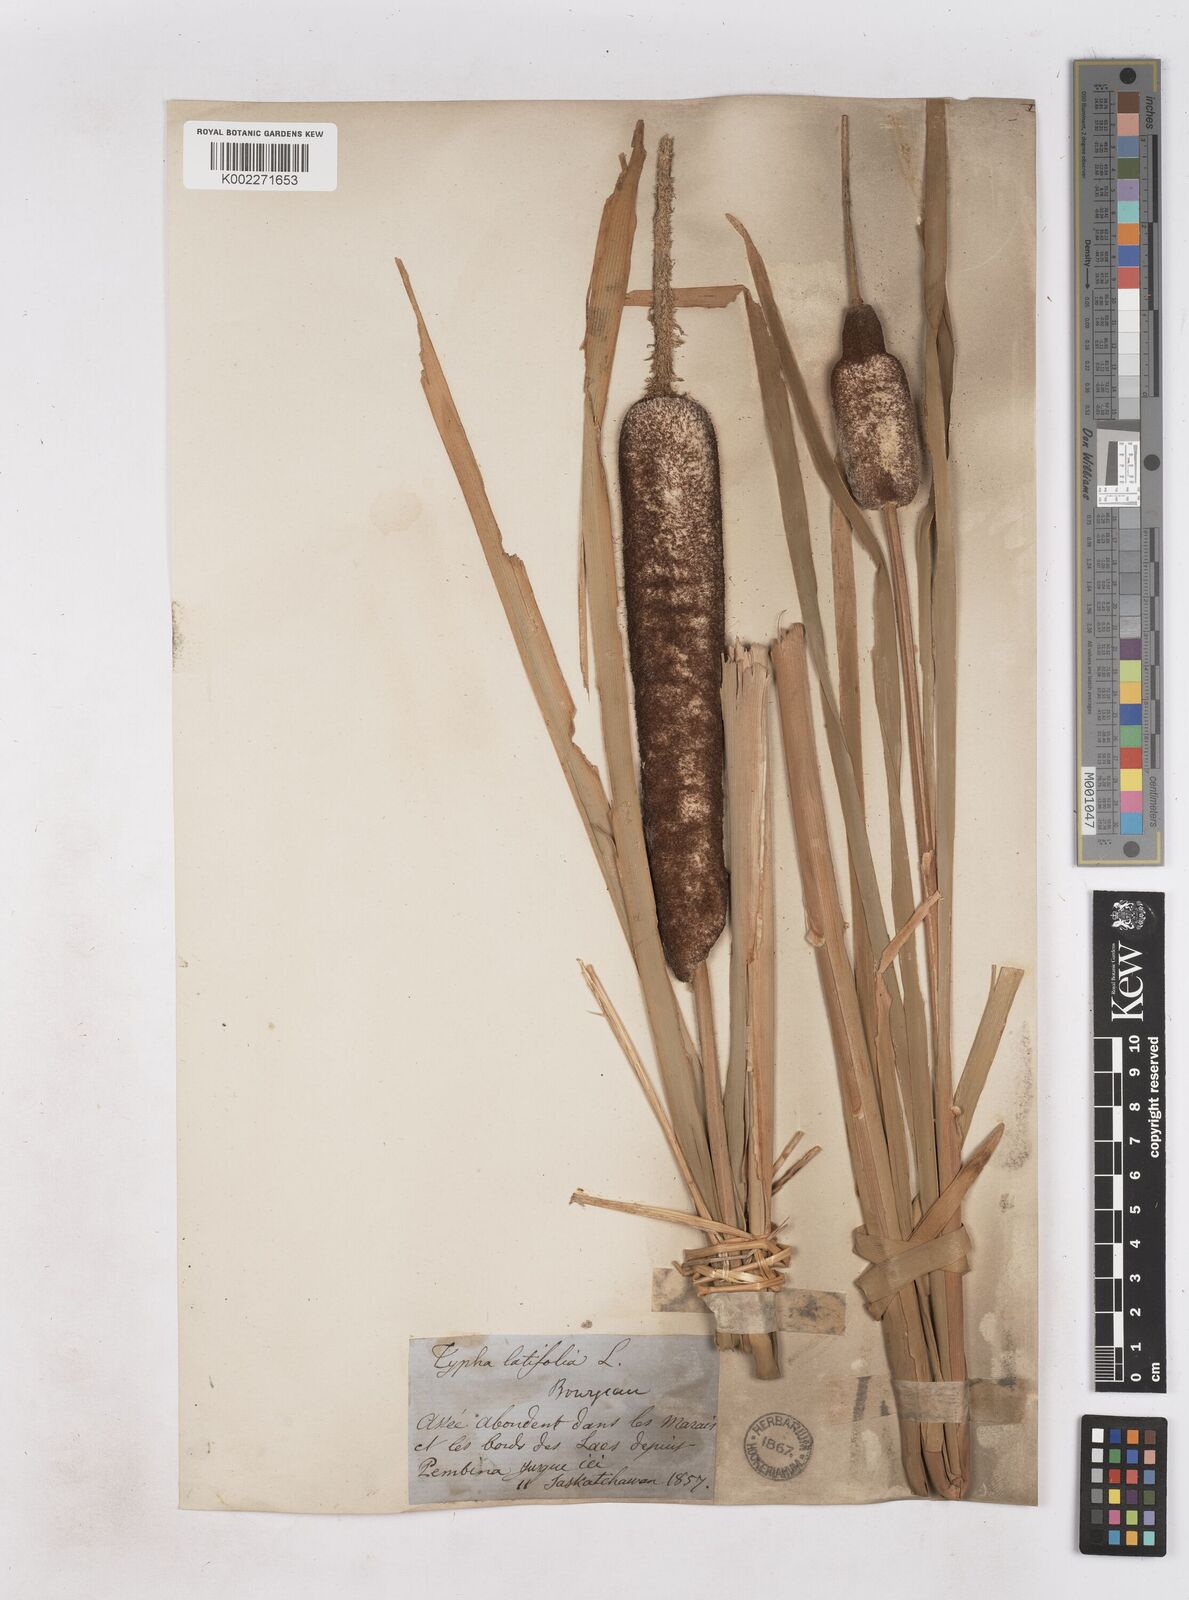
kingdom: Plantae
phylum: Tracheophyta
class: Liliopsida
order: Poales
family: Typhaceae
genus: Typha
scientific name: Typha latifolia
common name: Broadleaf cattail
